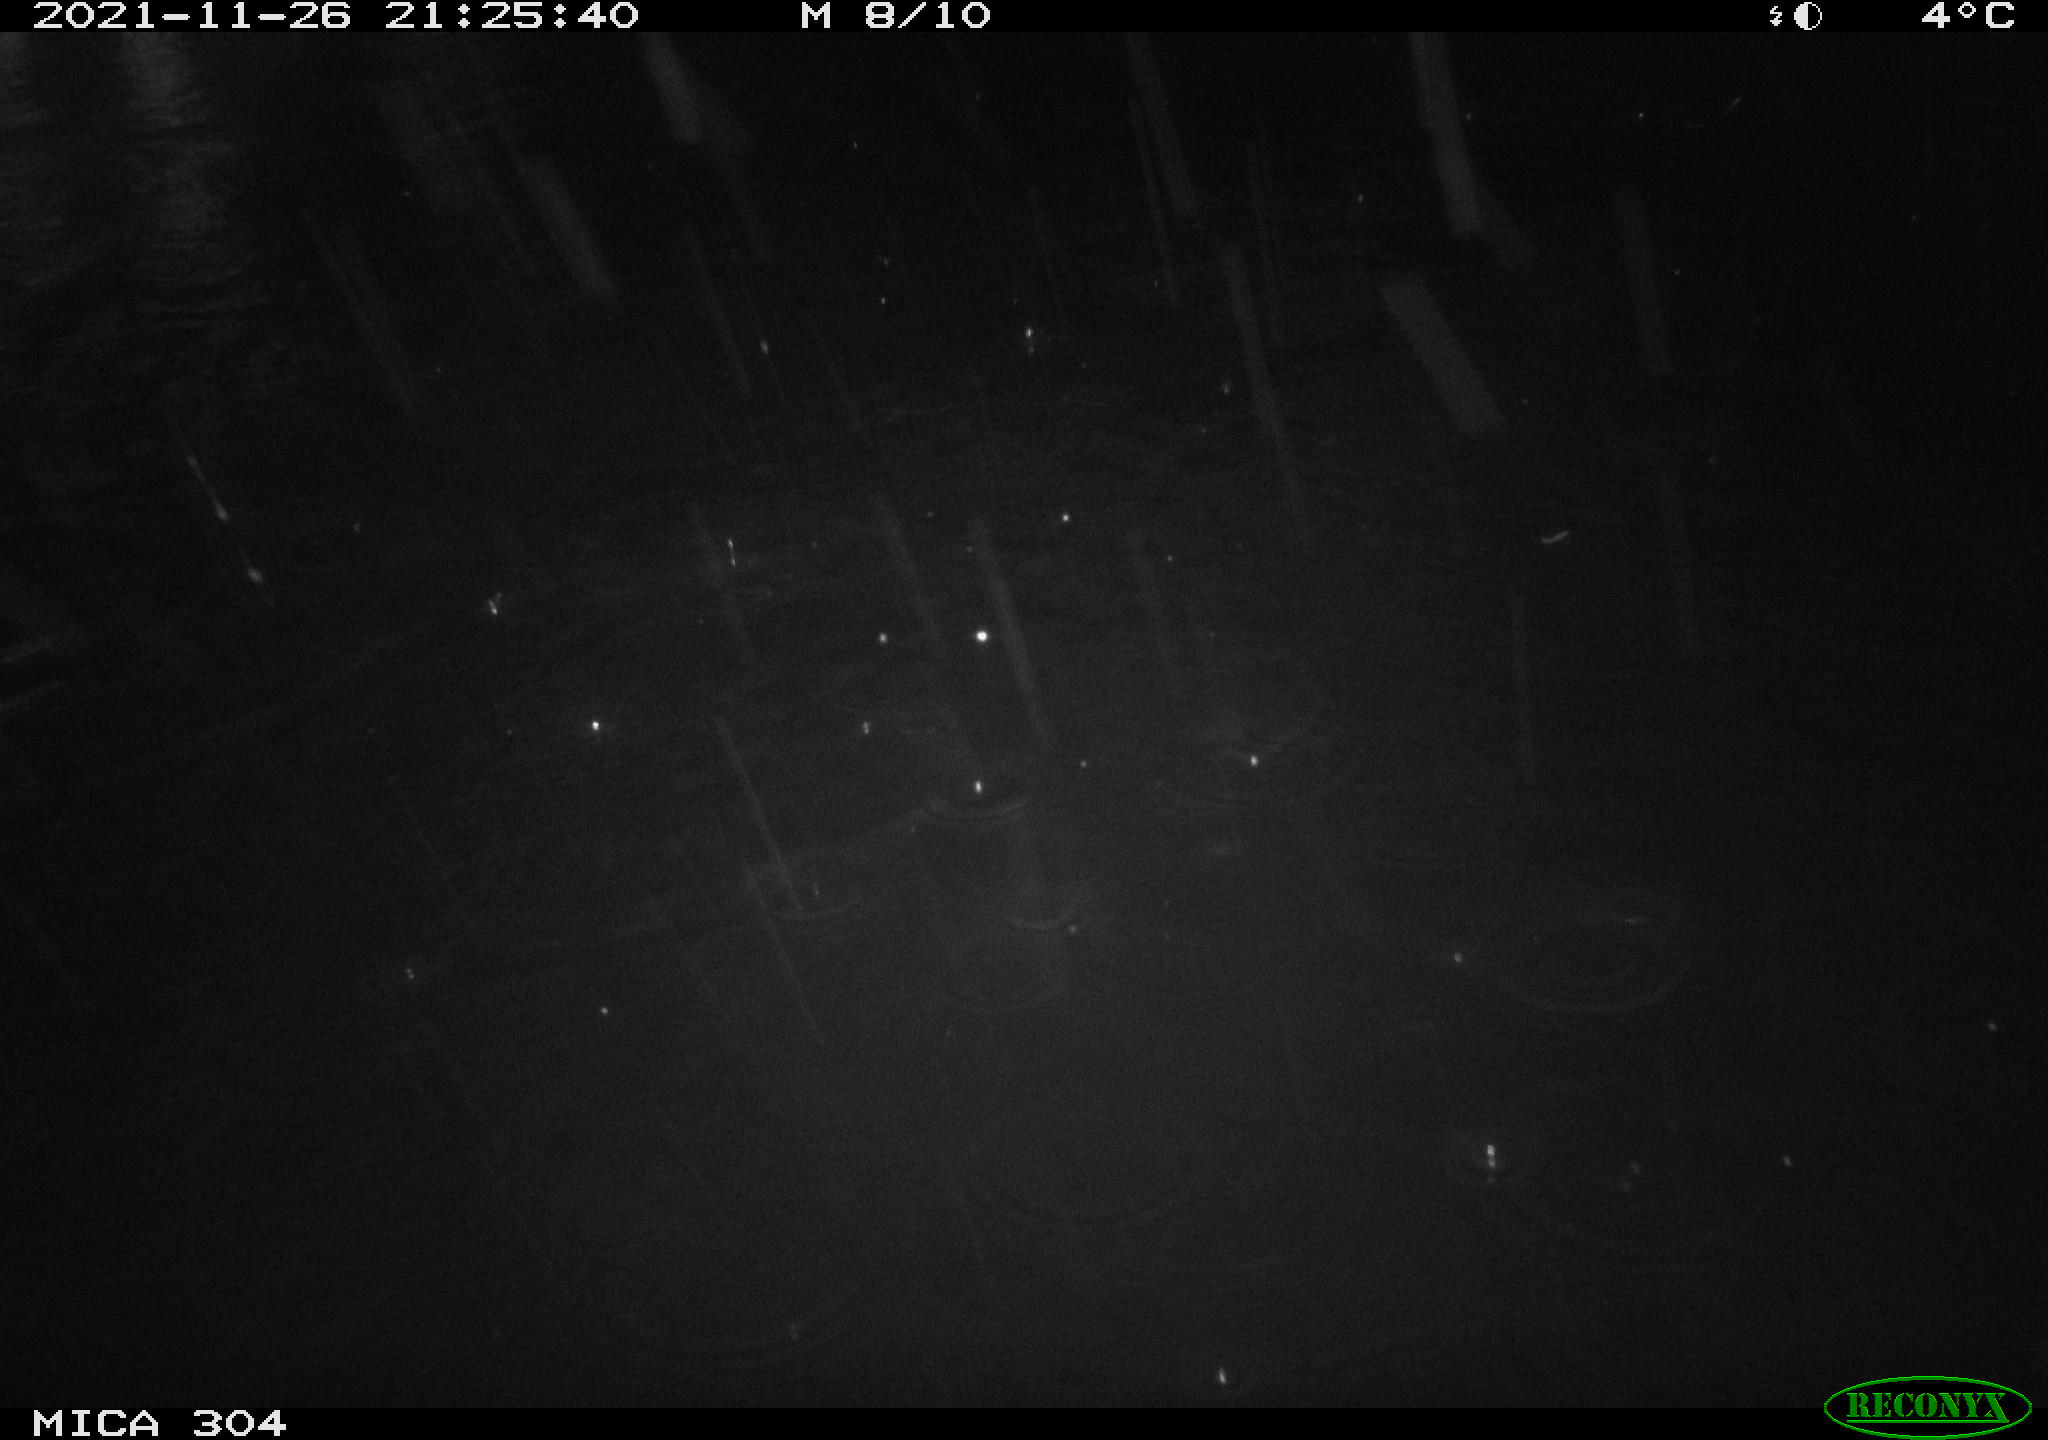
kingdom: Animalia
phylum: Chordata
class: Mammalia
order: Rodentia
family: Muridae
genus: Rattus
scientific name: Rattus norvegicus
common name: Brown rat
